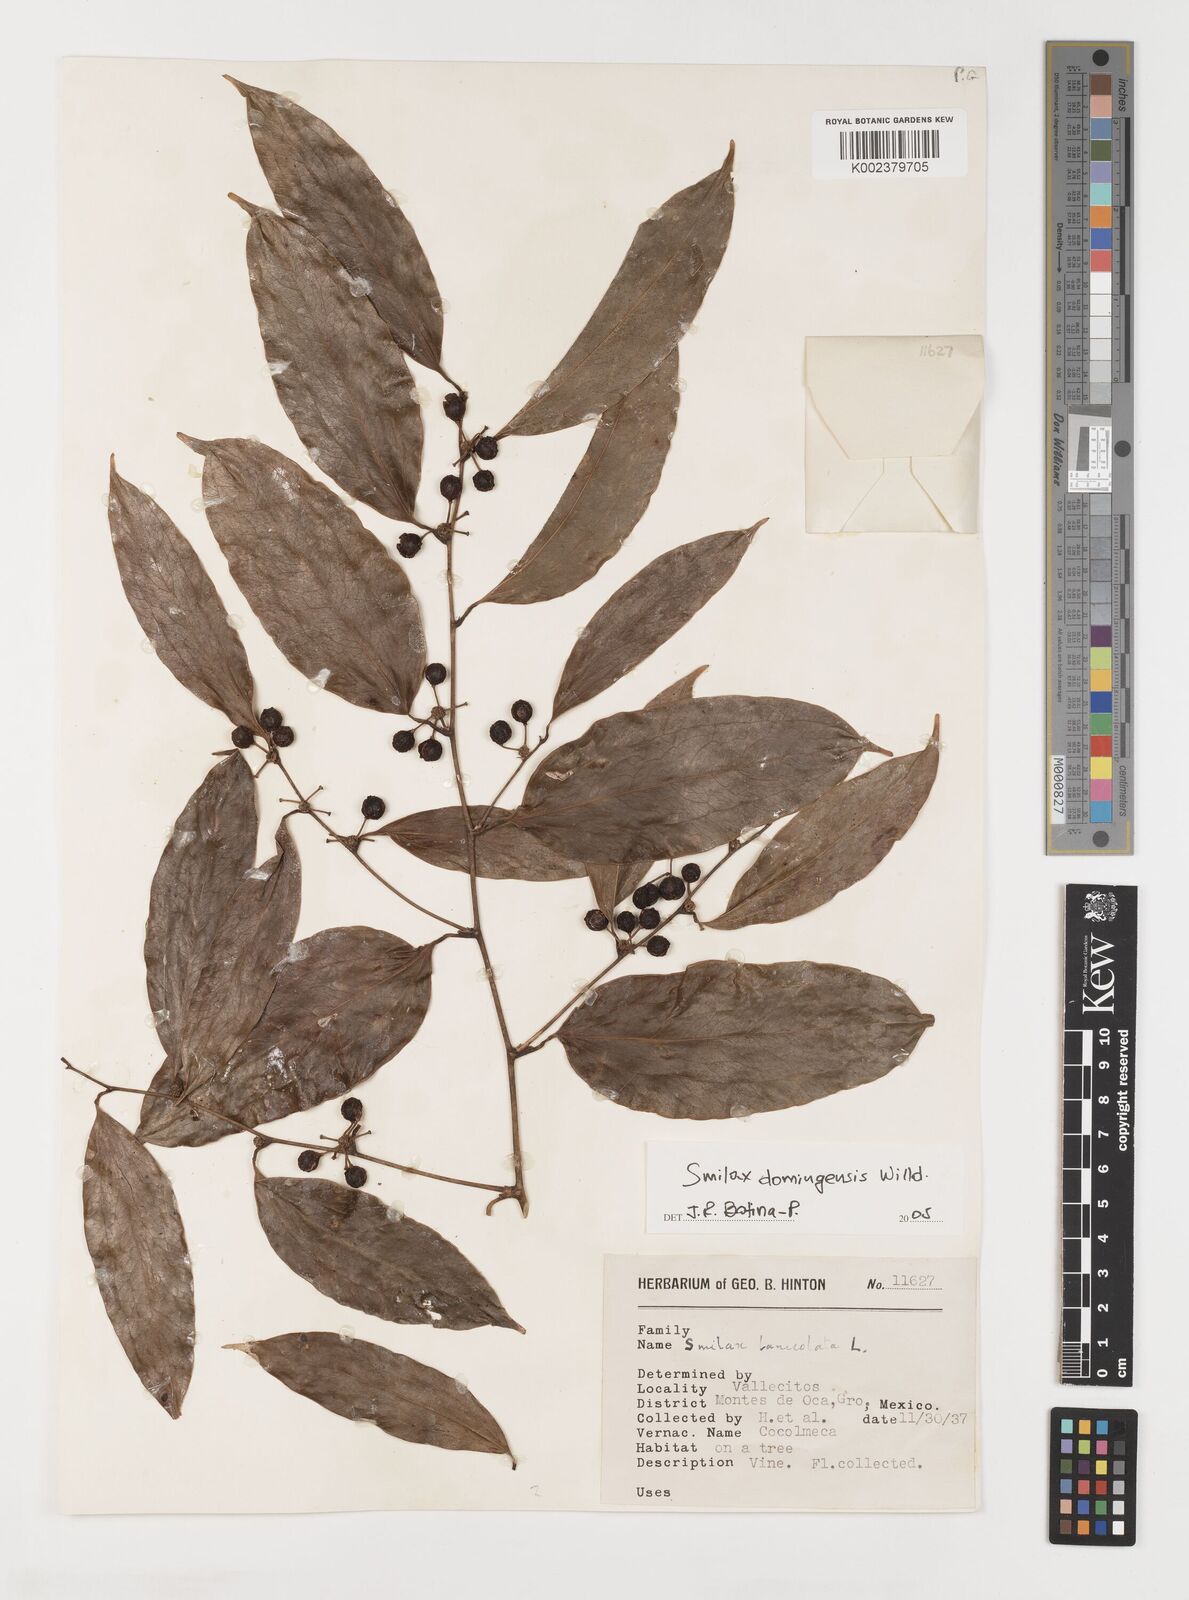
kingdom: Plantae
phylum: Tracheophyta
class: Liliopsida
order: Liliales
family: Smilacaceae
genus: Smilax
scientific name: Smilax domingensis
